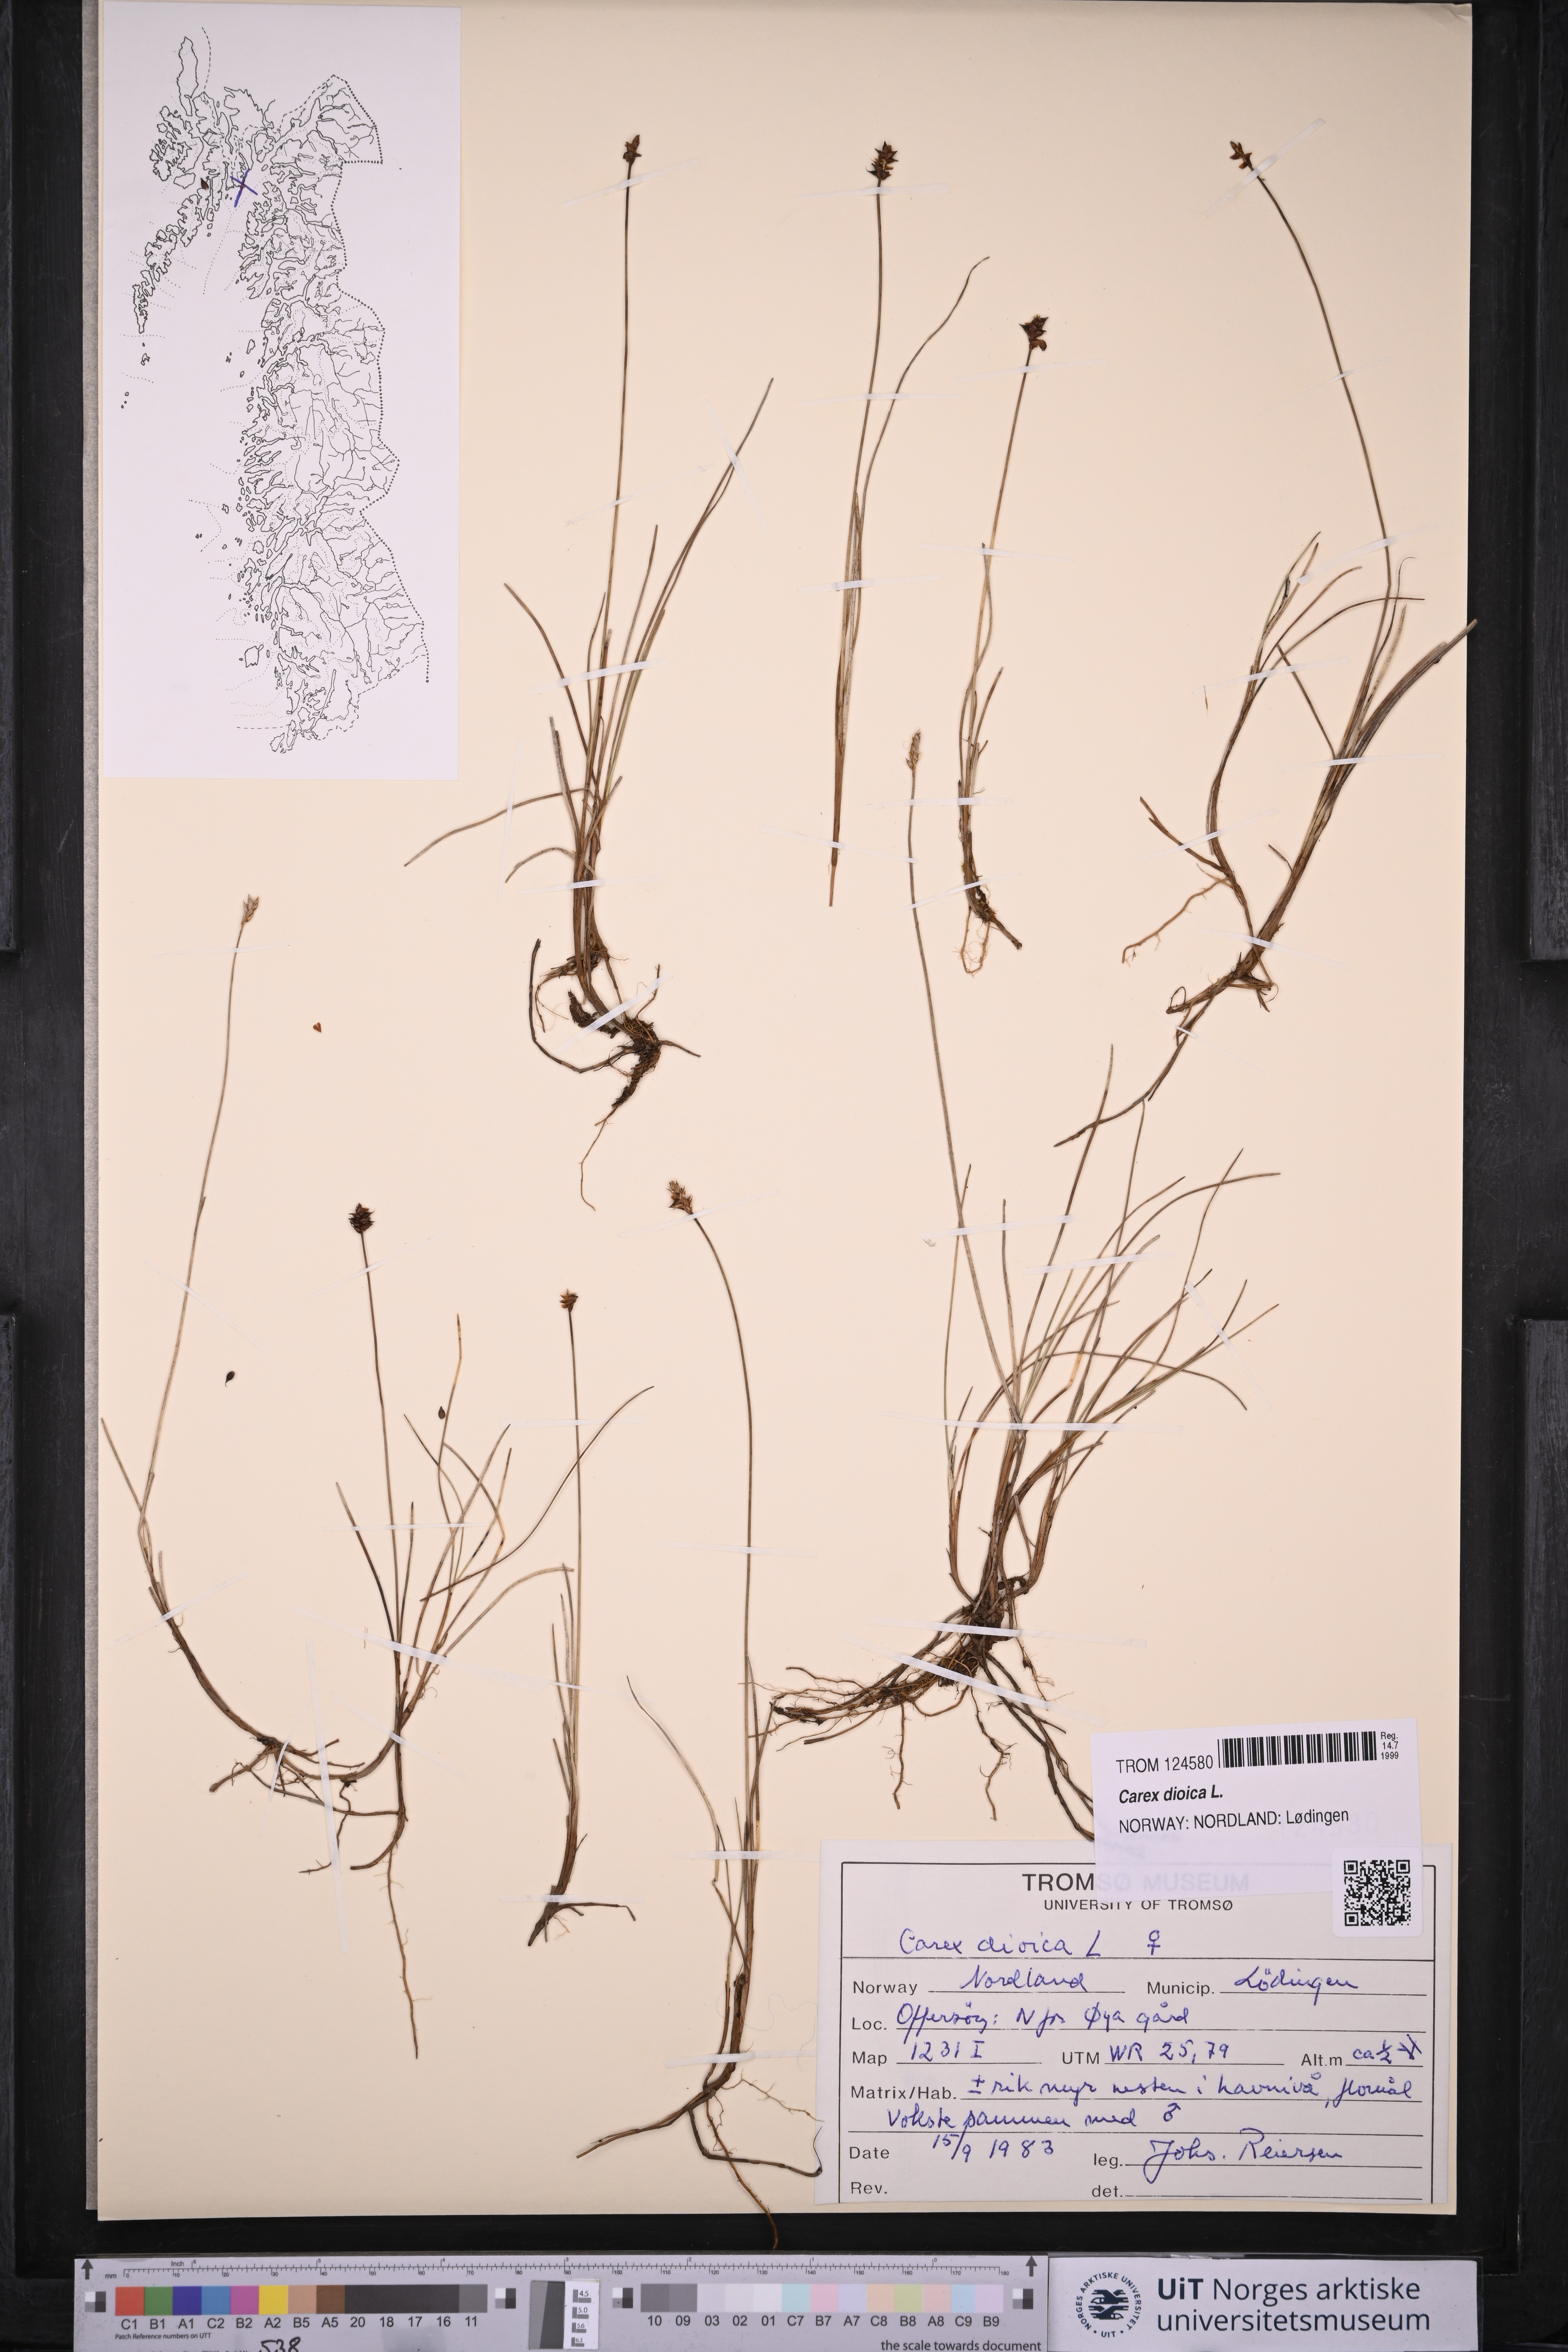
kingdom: Plantae
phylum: Tracheophyta
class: Liliopsida
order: Poales
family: Cyperaceae
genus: Carex
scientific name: Carex dioica
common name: Dioecious sedge
